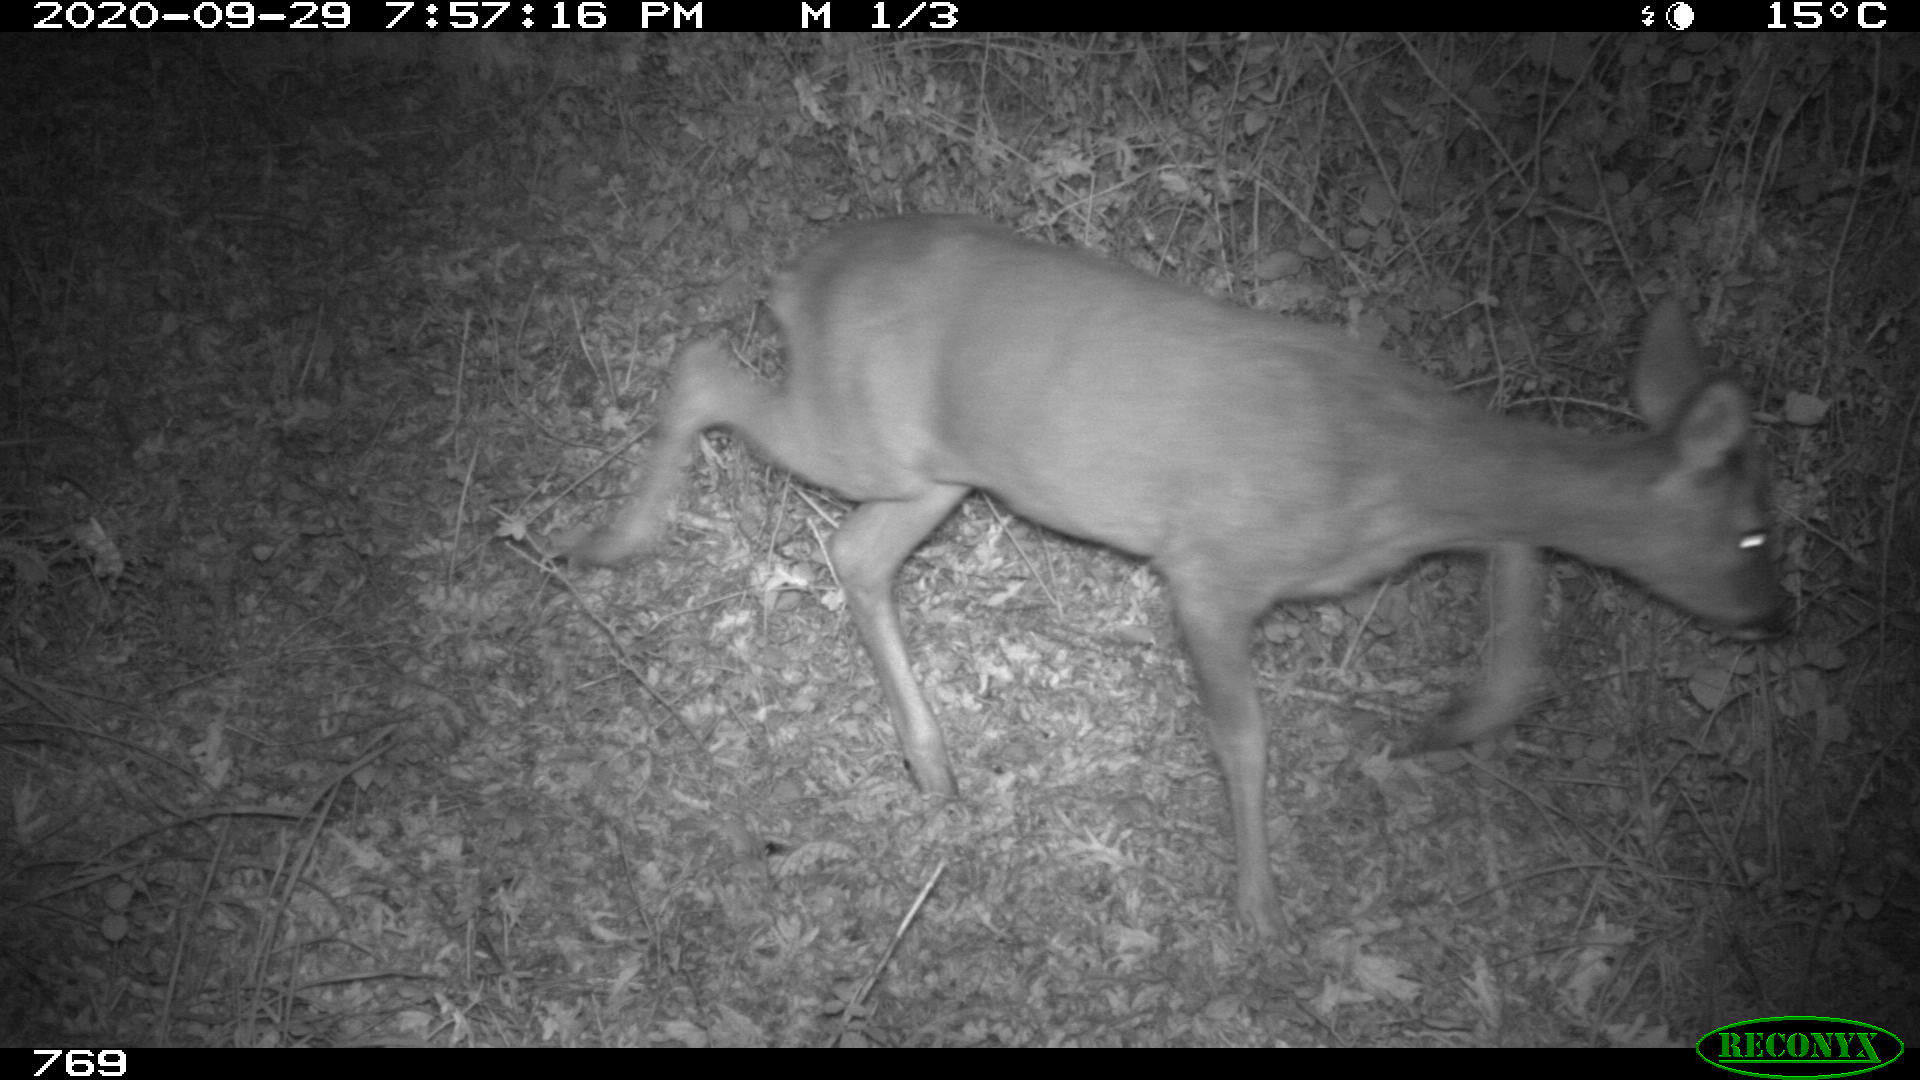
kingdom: Animalia
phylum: Chordata
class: Mammalia
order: Artiodactyla
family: Cervidae
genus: Capreolus
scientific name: Capreolus capreolus
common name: Western roe deer
